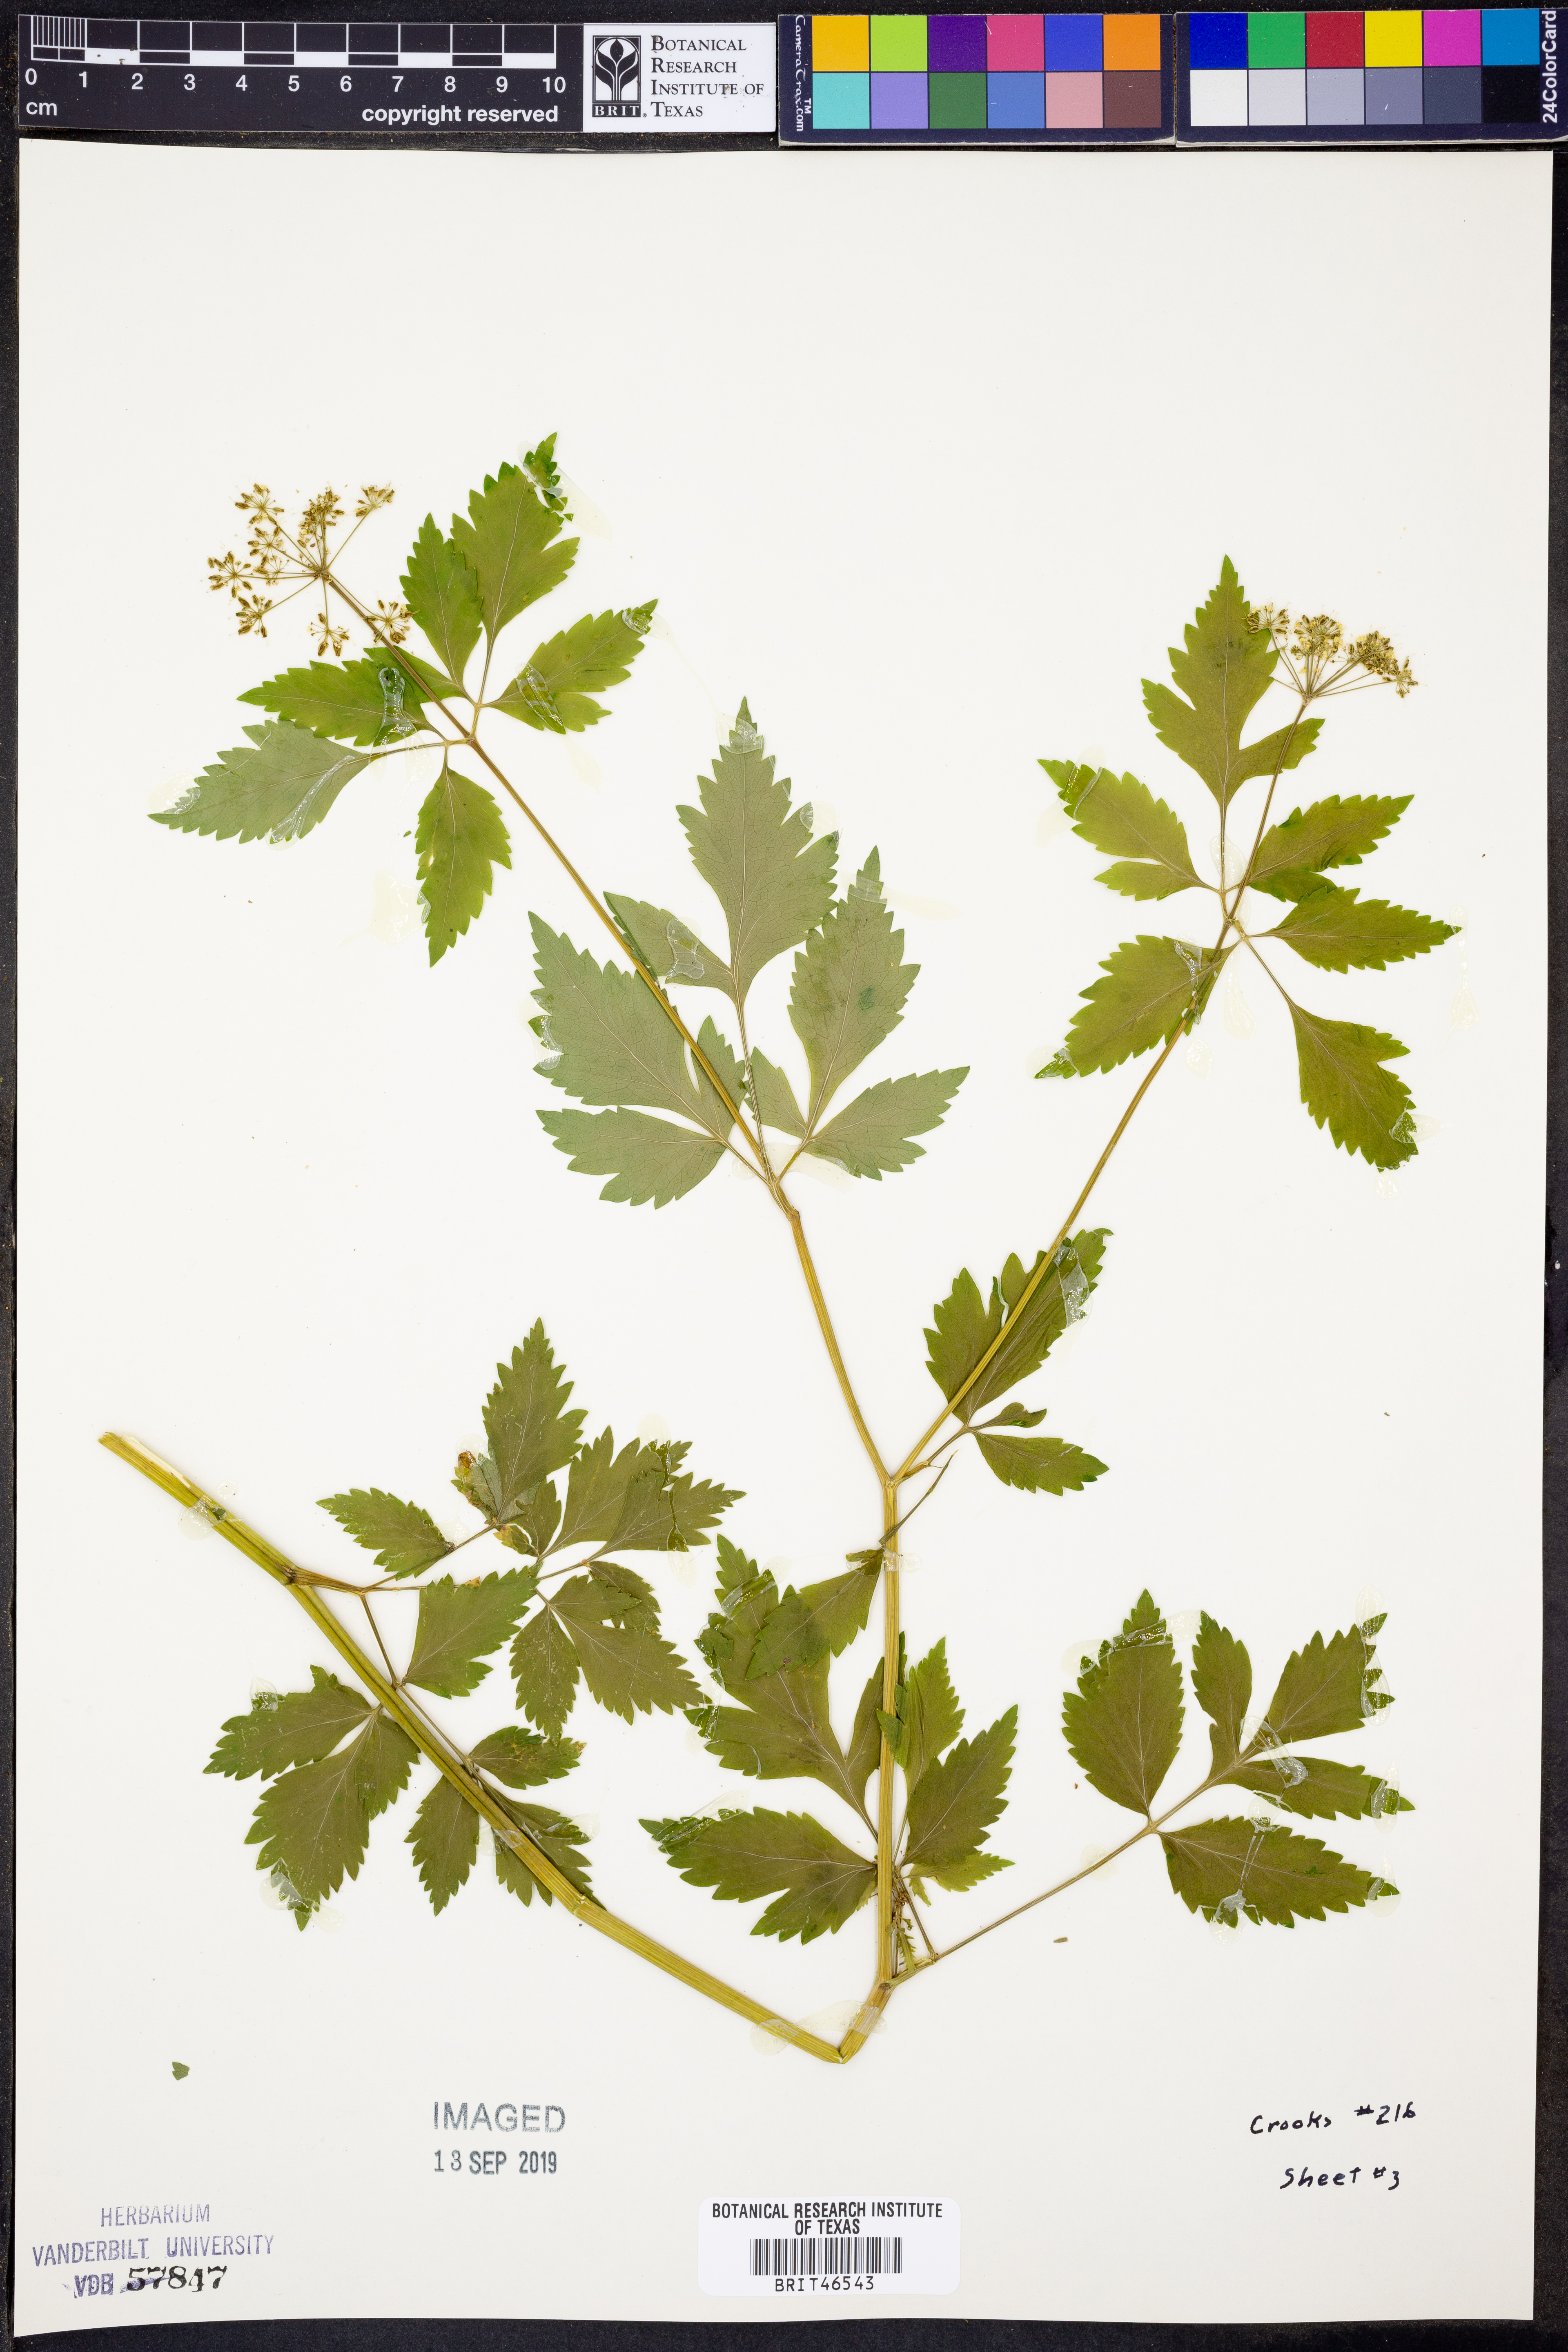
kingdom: Plantae
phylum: Tracheophyta
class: Magnoliopsida
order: Apiales
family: Apiaceae
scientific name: Apiaceae
